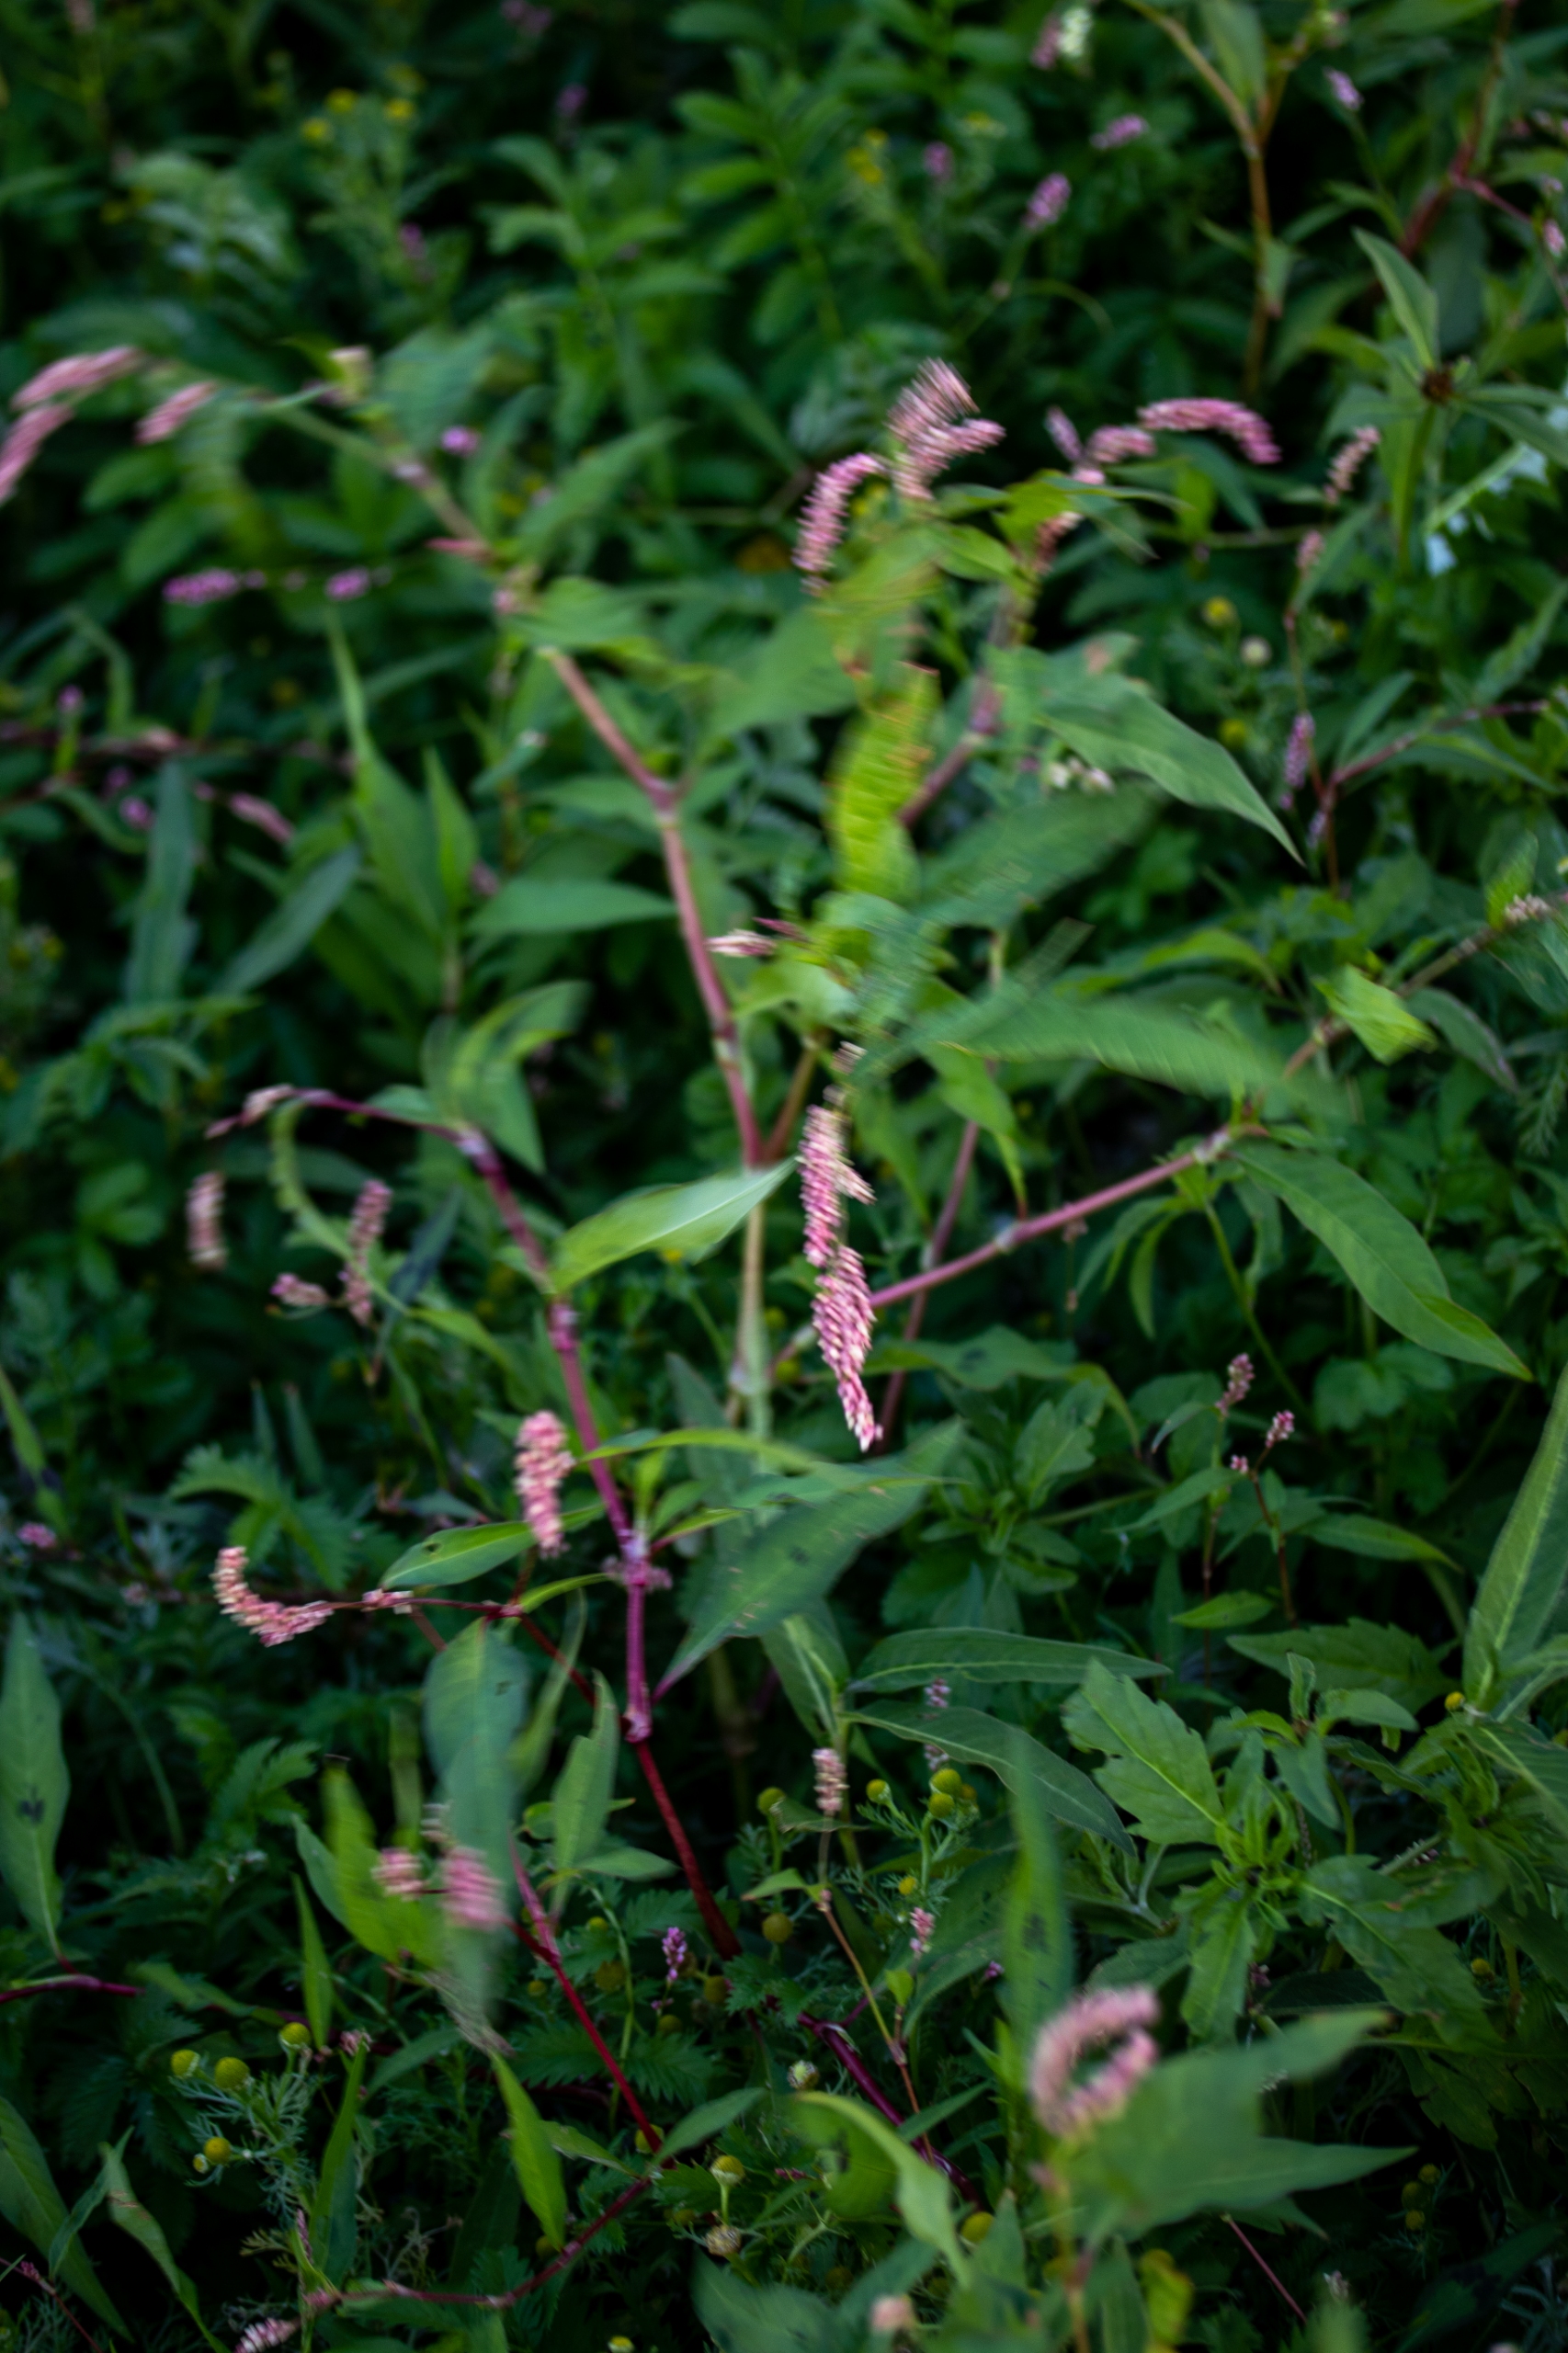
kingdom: Plantae
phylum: Tracheophyta
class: Magnoliopsida
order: Caryophyllales
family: Polygonaceae
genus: Persicaria
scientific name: Persicaria amphibia
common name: Vand-pileurt
